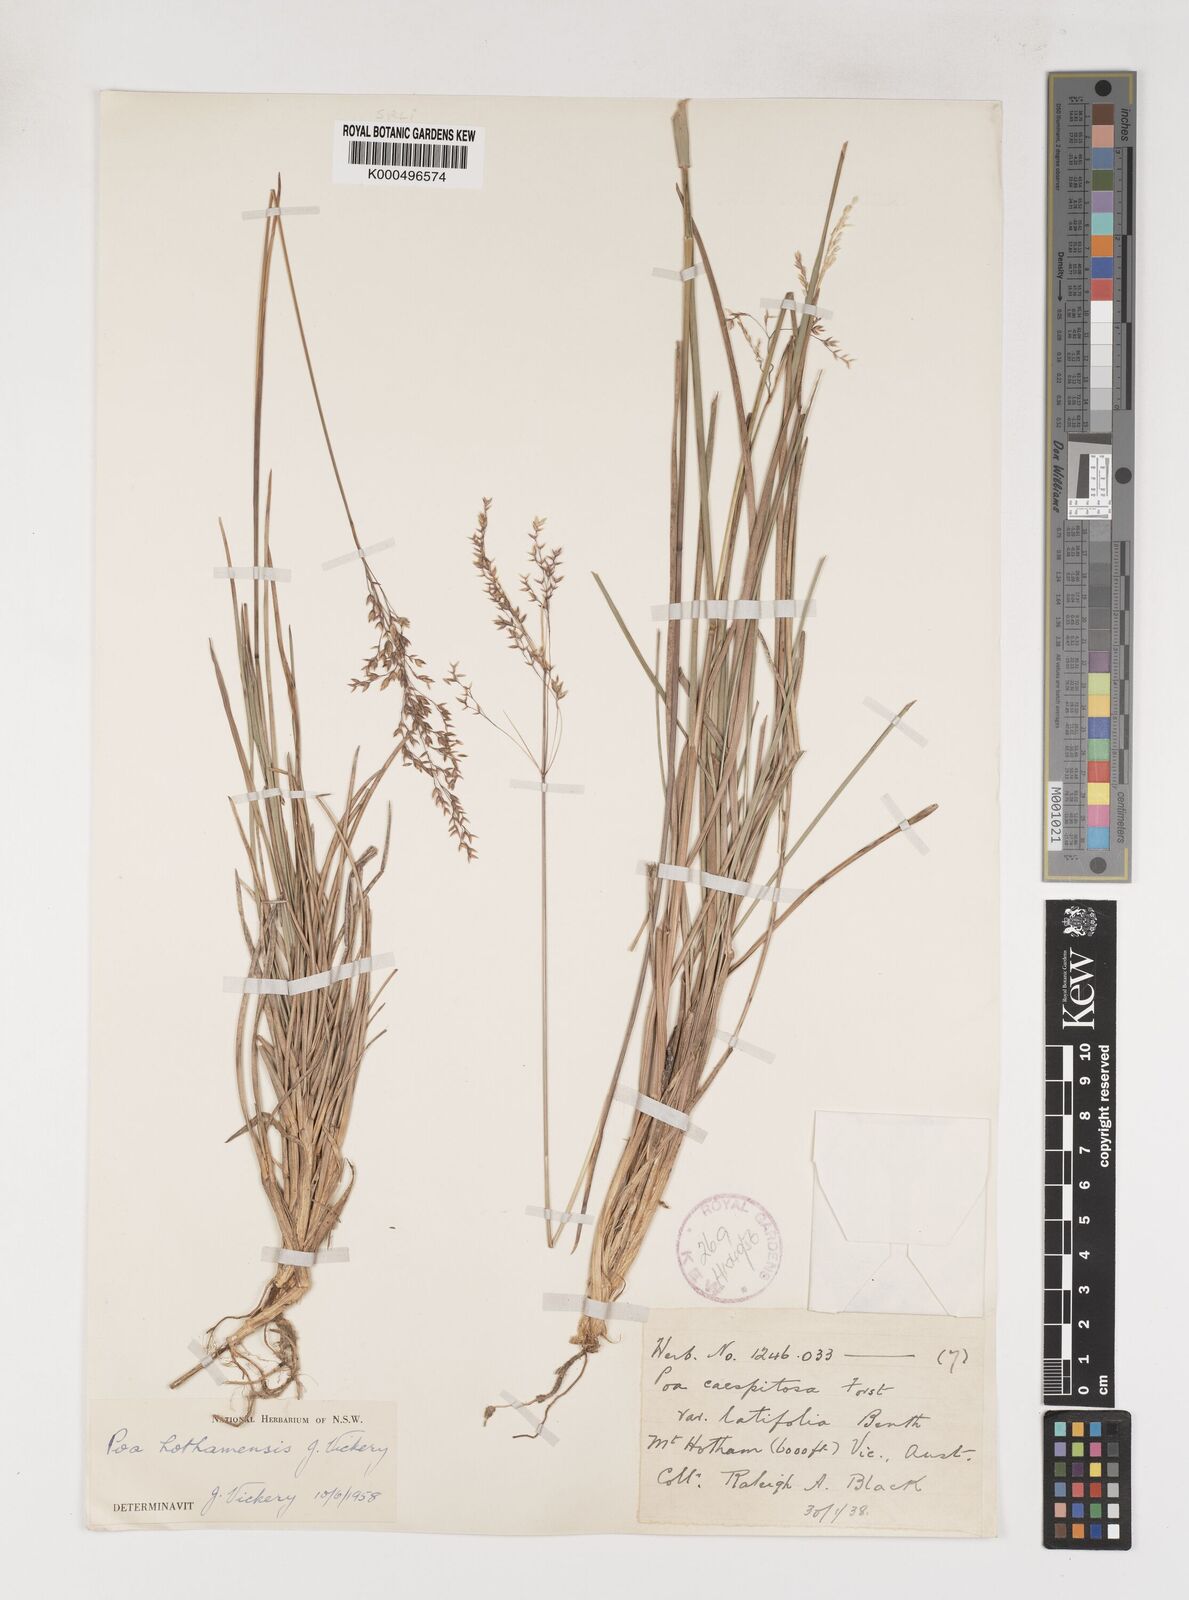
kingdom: Plantae
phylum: Tracheophyta
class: Liliopsida
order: Poales
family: Poaceae
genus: Poa
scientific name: Poa hothamensis
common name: Ledge grass
